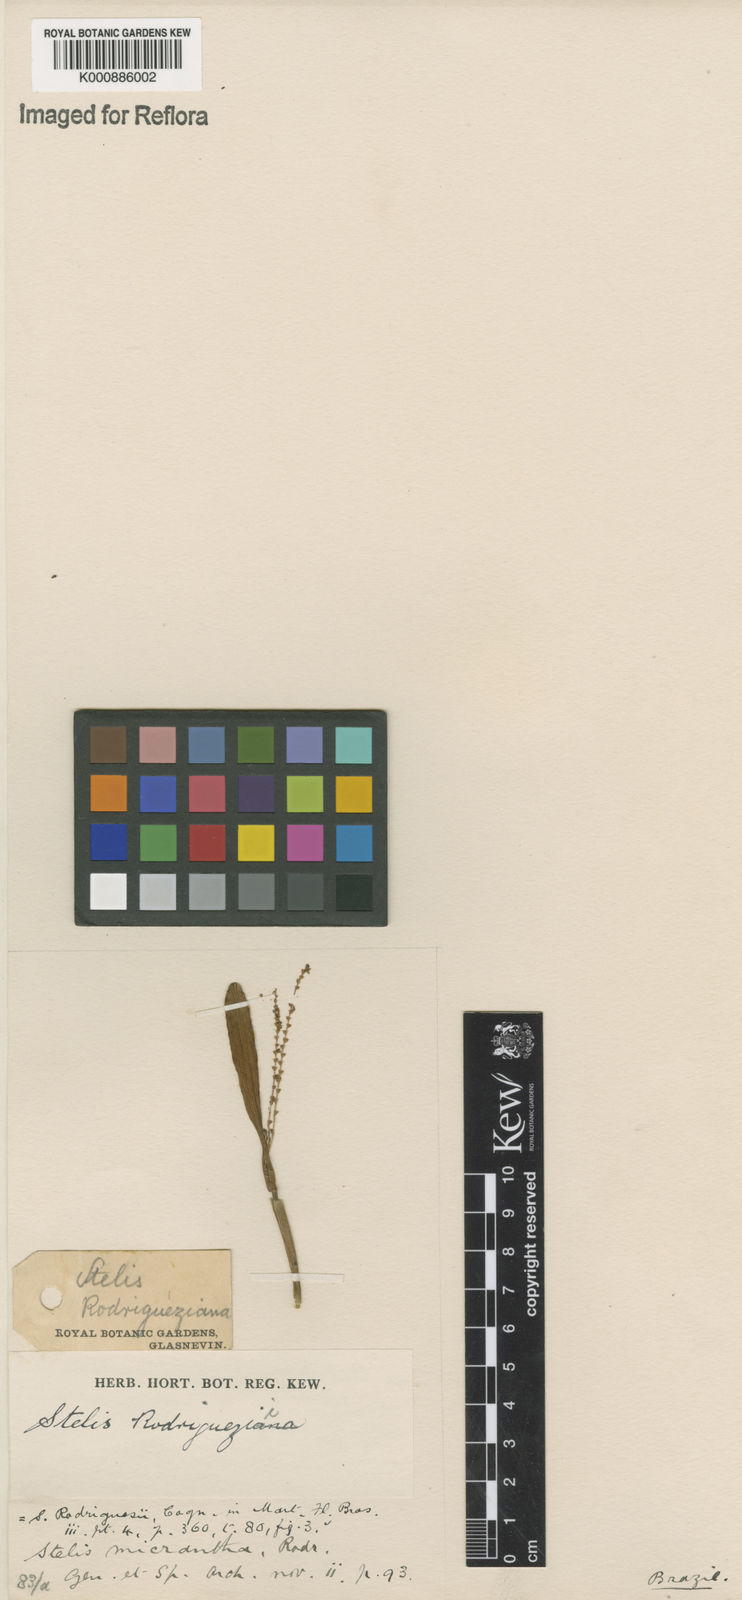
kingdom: Plantae
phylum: Tracheophyta
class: Liliopsida
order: Asparagales
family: Orchidaceae
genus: Stelis
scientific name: Stelis aprica
